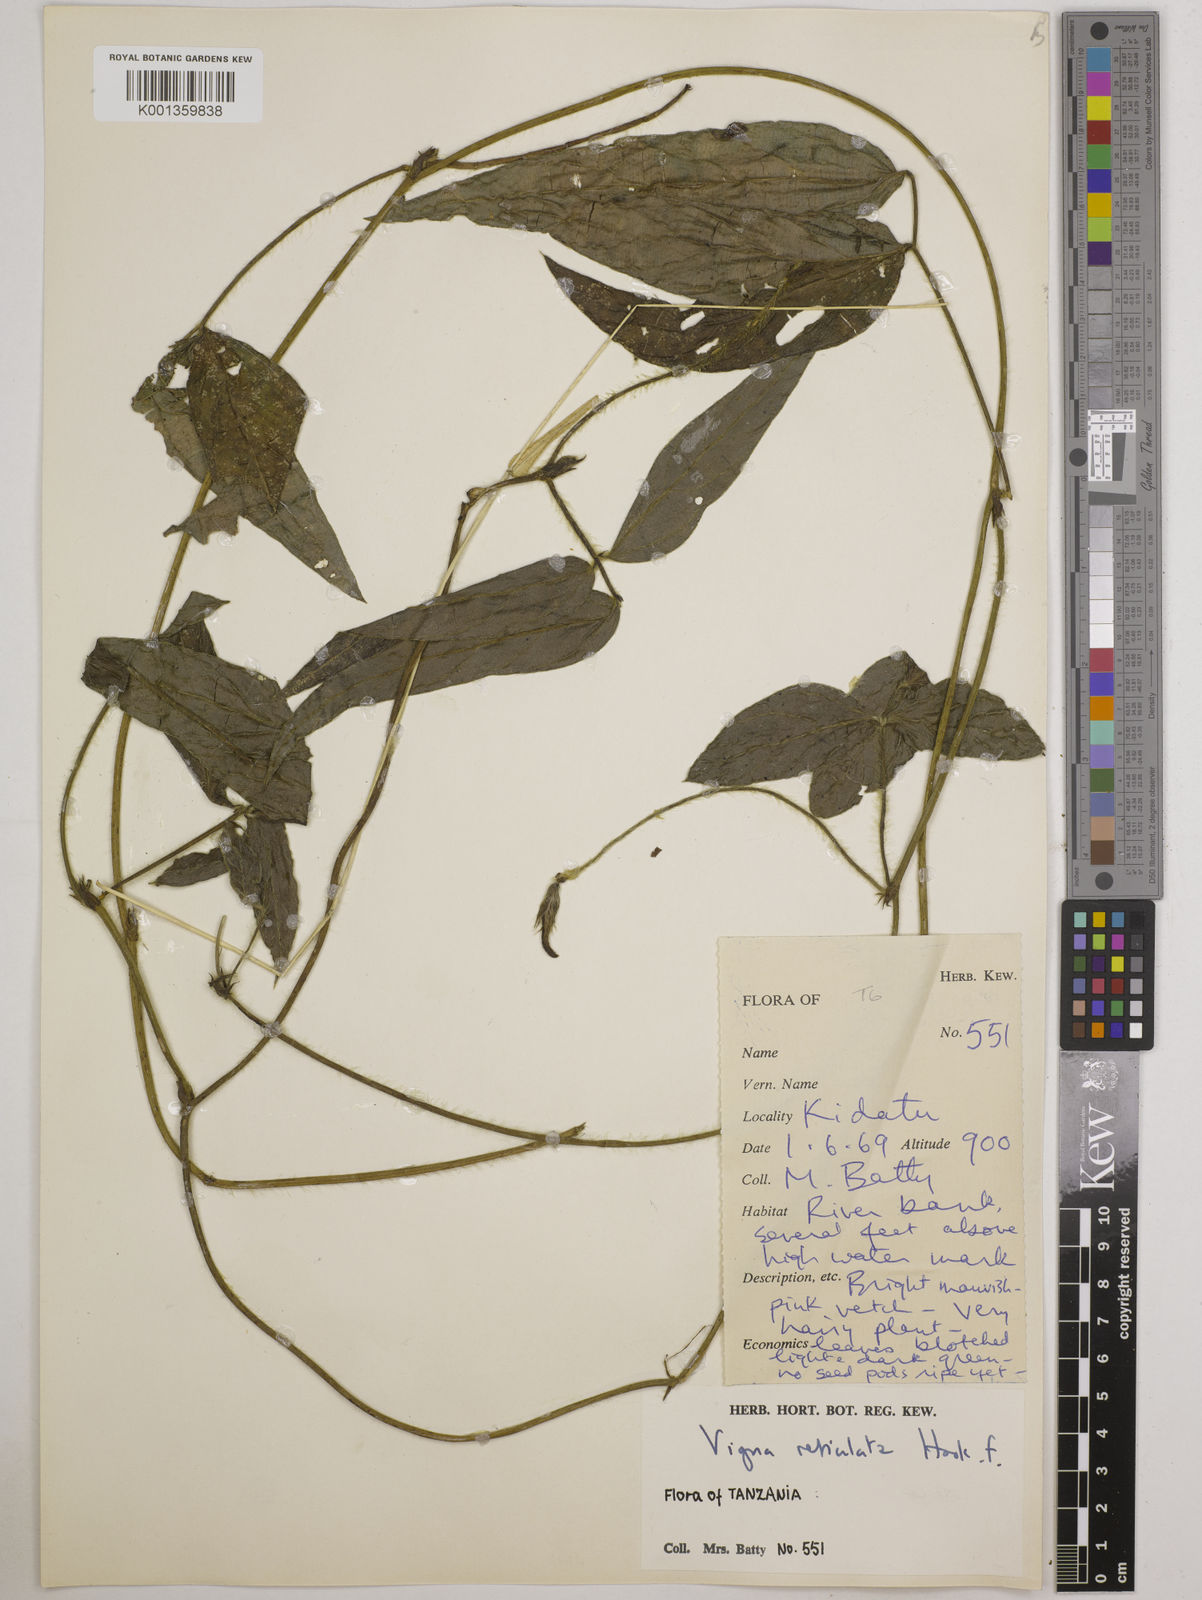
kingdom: Plantae
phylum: Tracheophyta
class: Magnoliopsida
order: Fabales
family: Fabaceae
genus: Vigna
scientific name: Vigna reticulata
